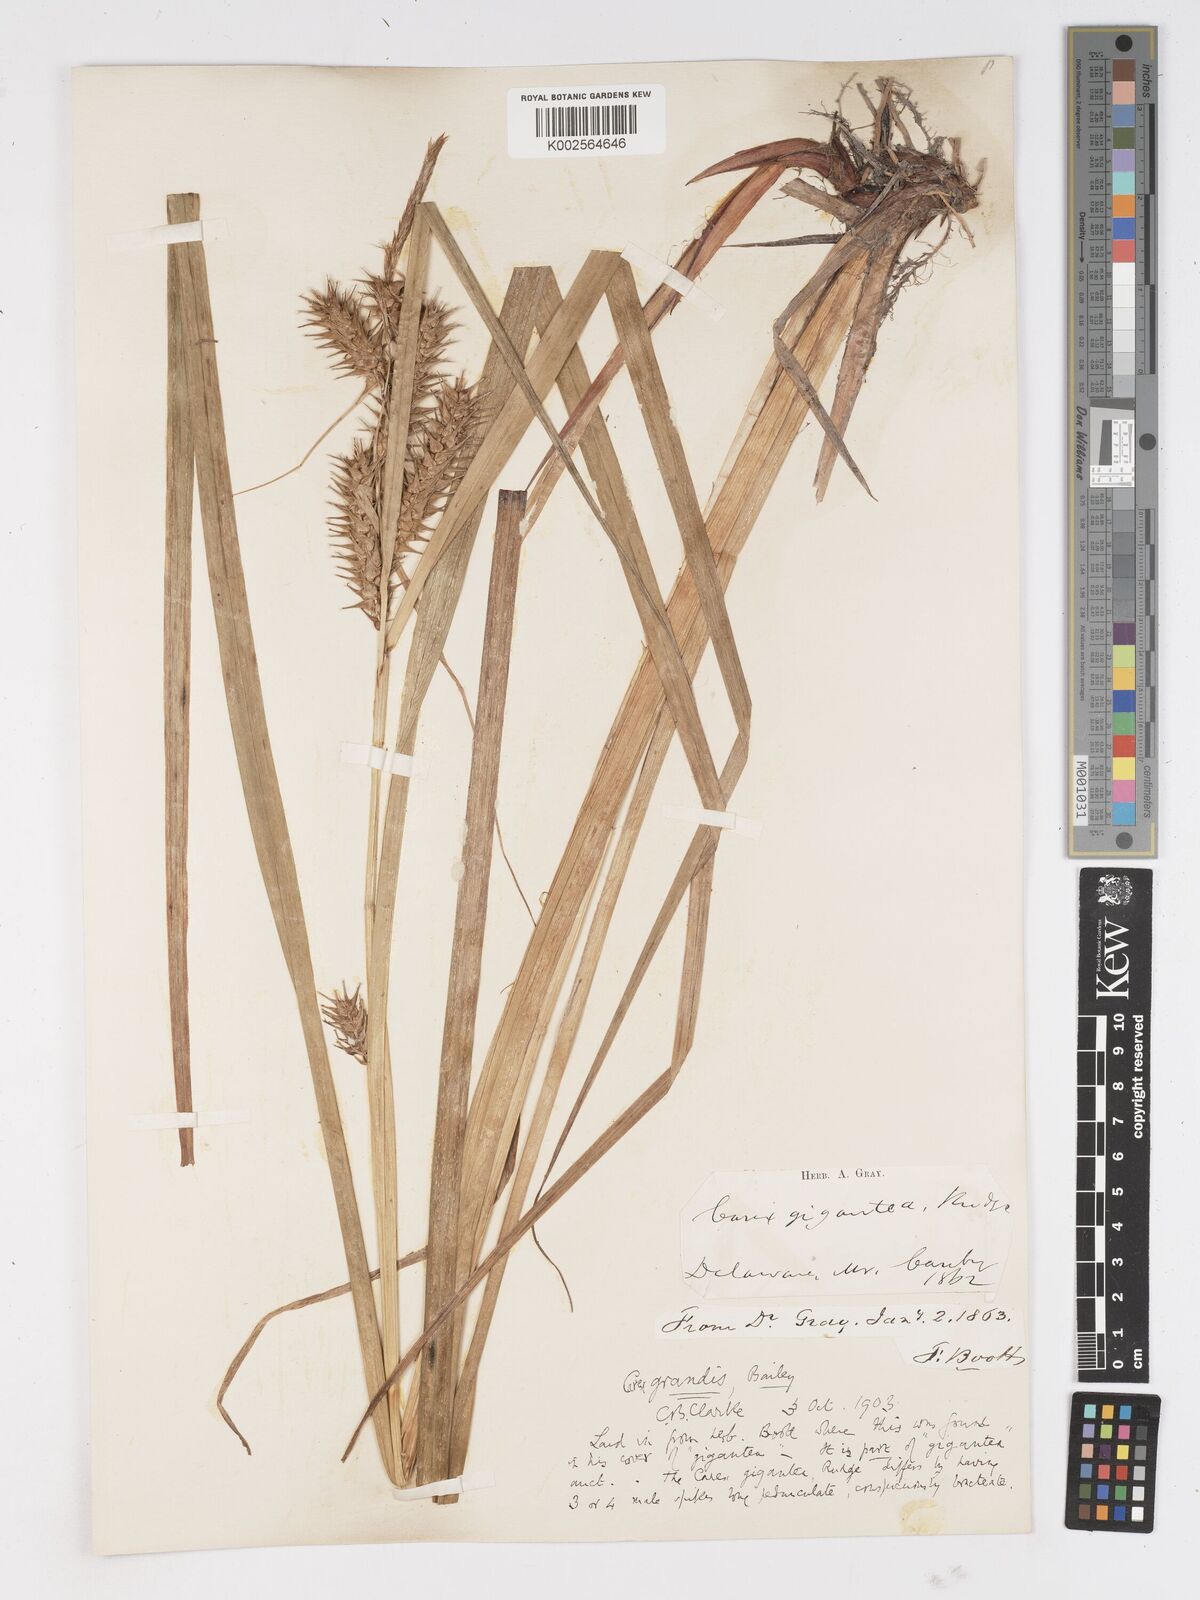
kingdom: Plantae
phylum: Tracheophyta
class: Liliopsida
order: Poales
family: Cyperaceae
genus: Carex
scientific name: Carex gigantea
